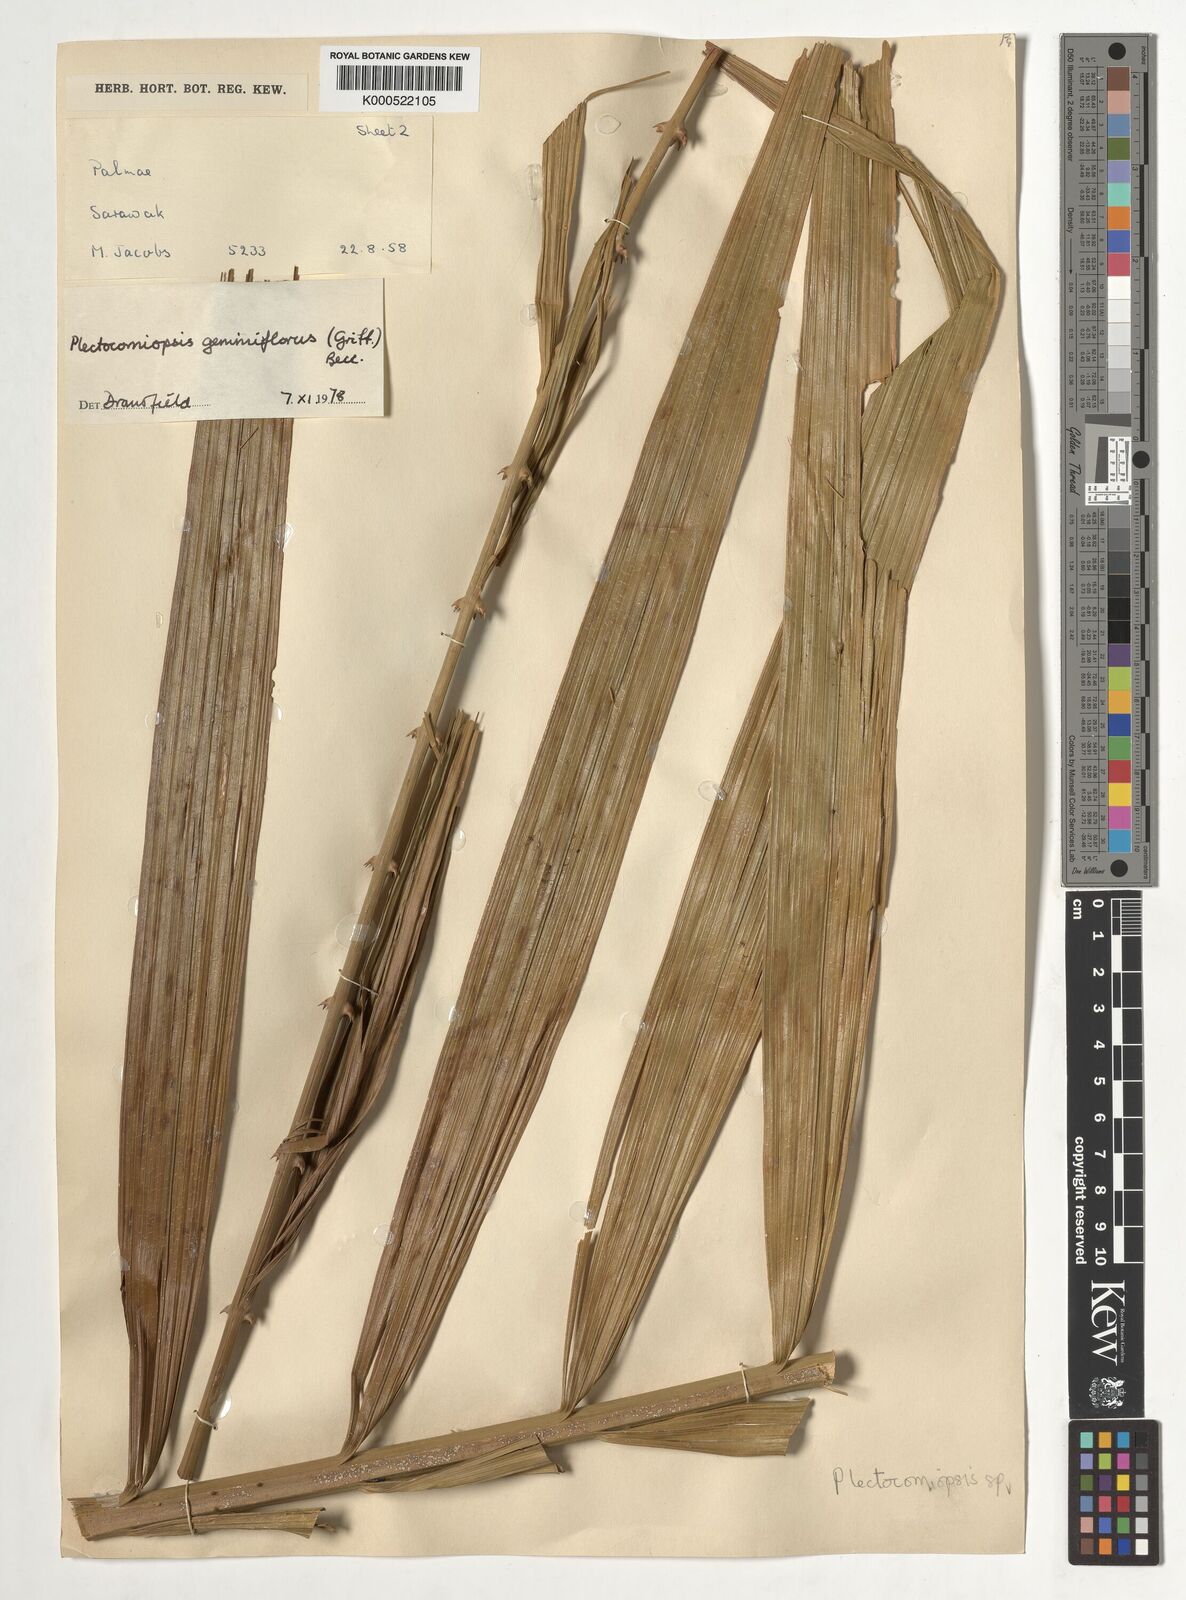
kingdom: Plantae
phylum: Tracheophyta
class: Liliopsida
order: Arecales
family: Arecaceae
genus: Plectocomiopsis
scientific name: Plectocomiopsis geminiflora
